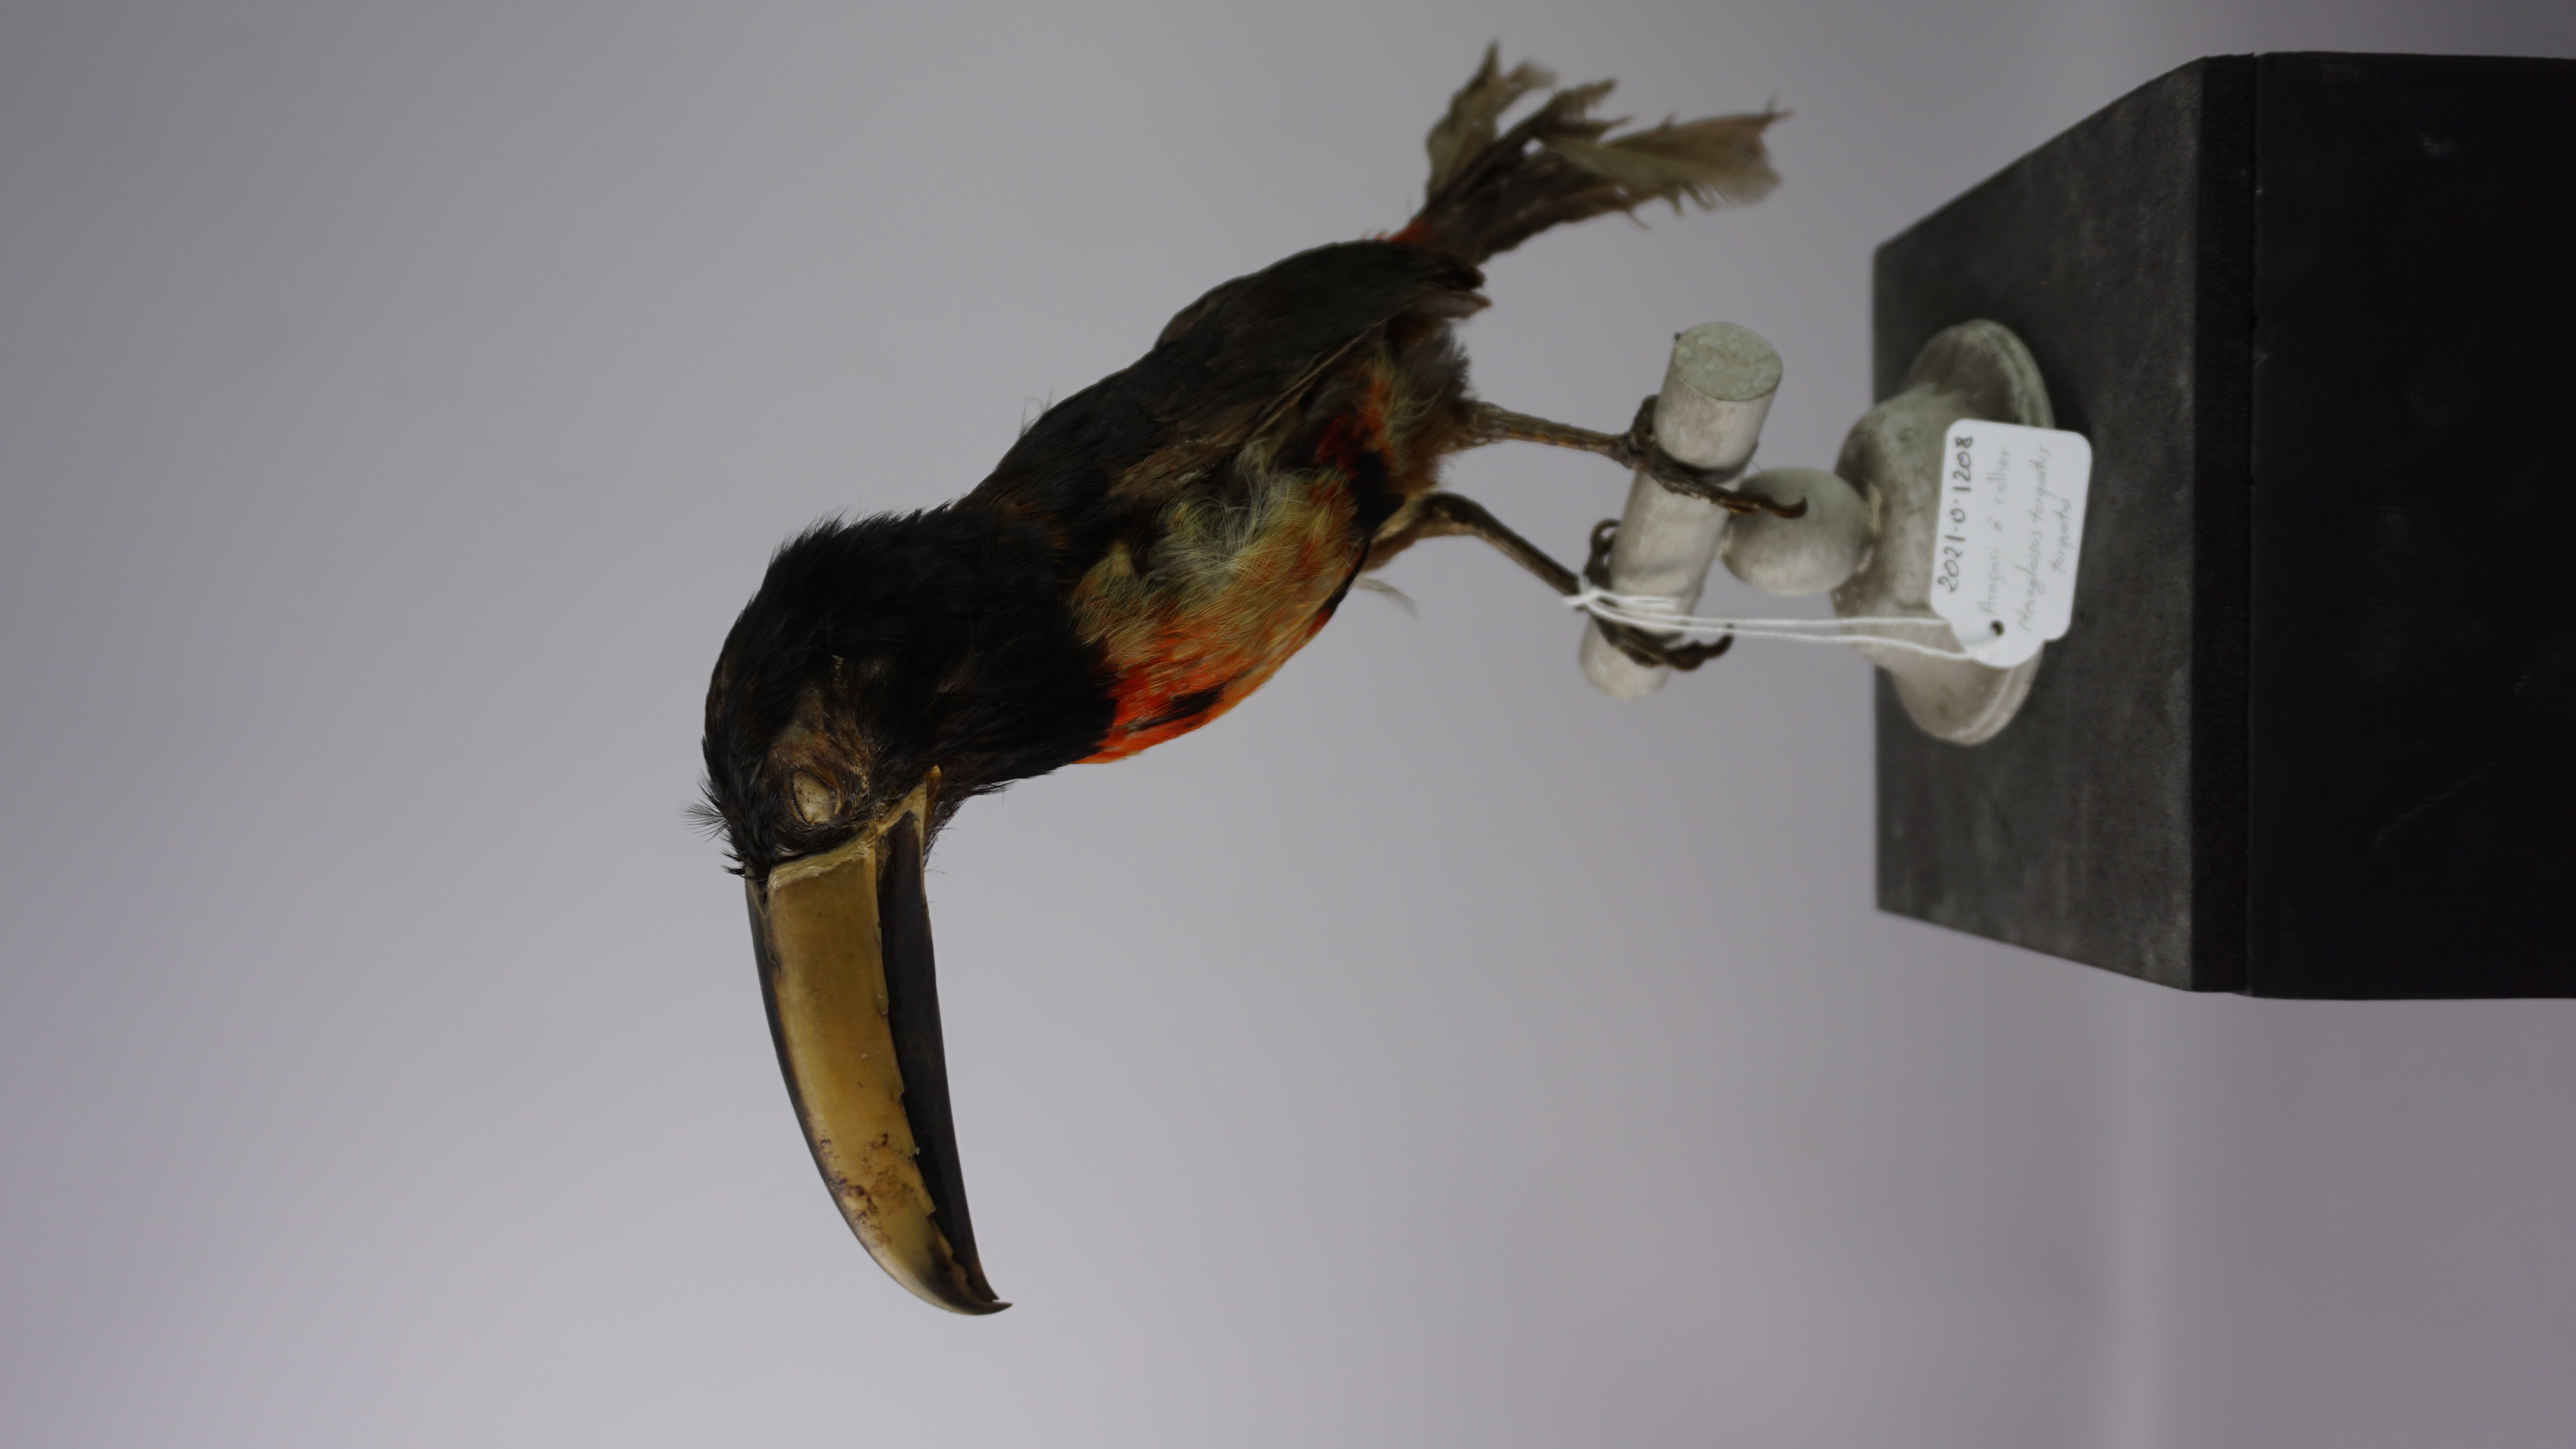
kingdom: Animalia
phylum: Chordata
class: Aves
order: Piciformes
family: Ramphastidae
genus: Pteroglossus
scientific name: Pteroglossus torquatus
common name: Collared aracari
